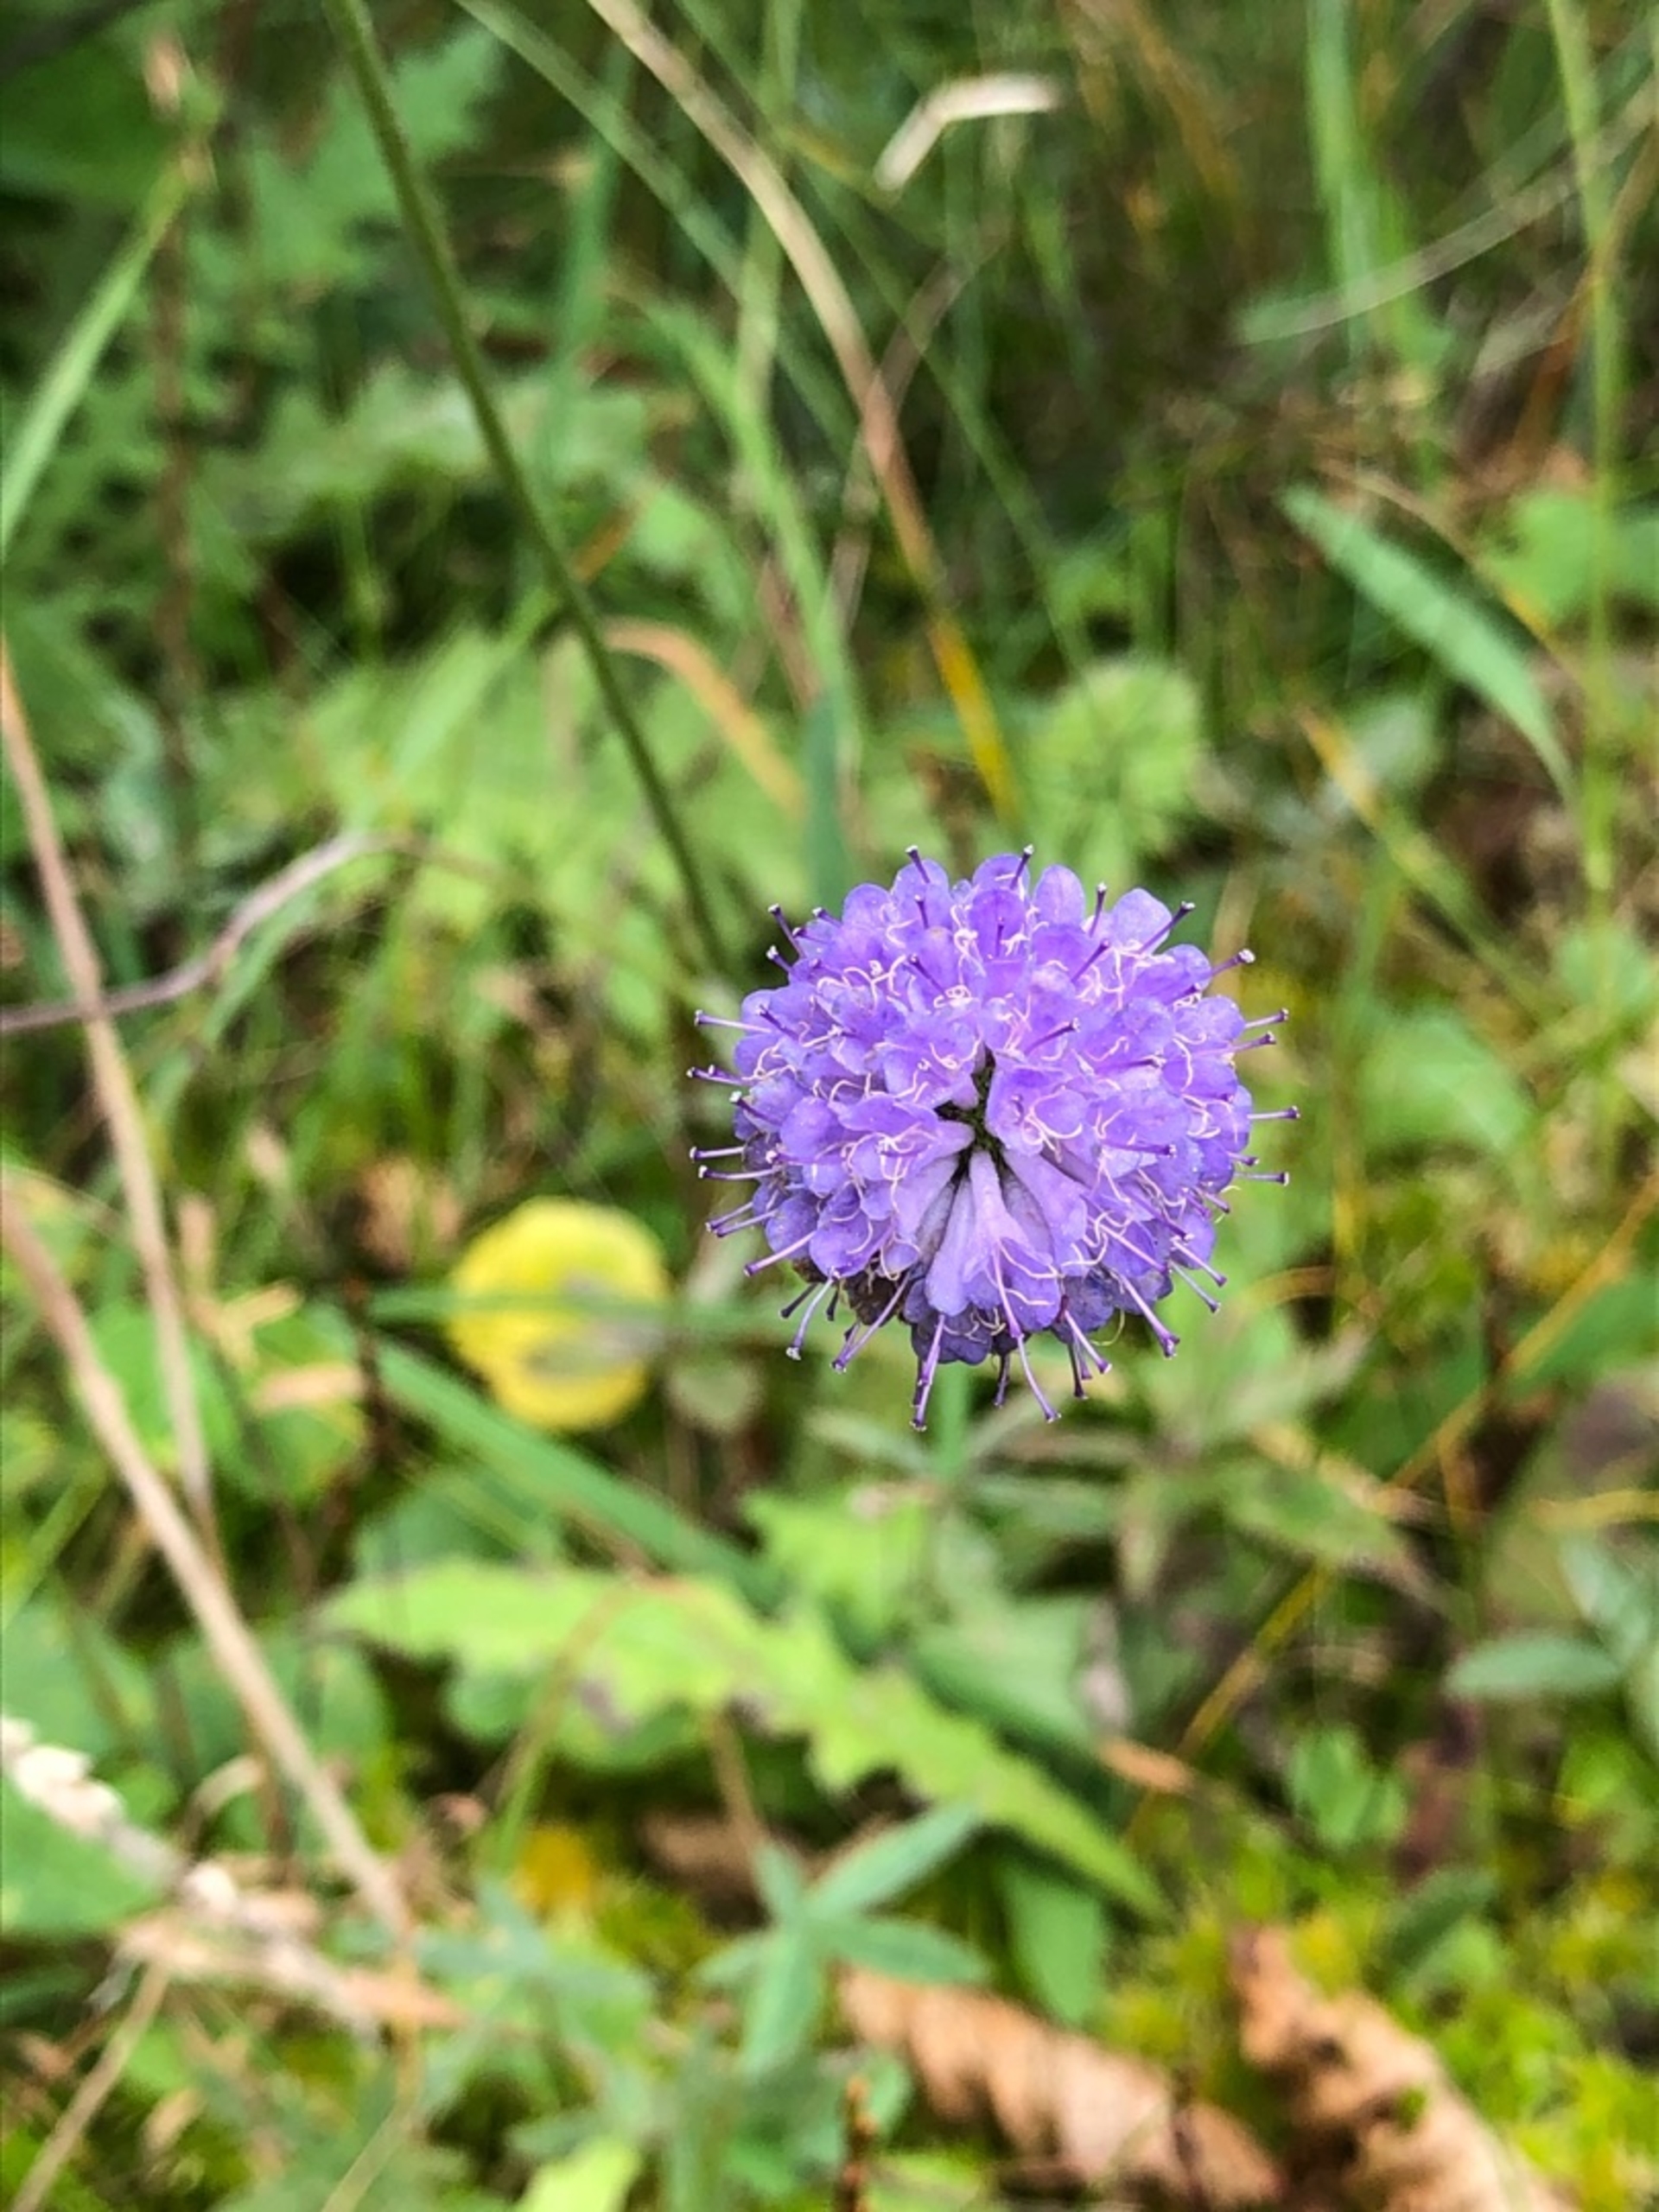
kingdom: Plantae
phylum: Tracheophyta
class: Magnoliopsida
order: Dipsacales
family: Caprifoliaceae
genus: Succisa
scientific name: Succisa pratensis
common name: Djævelsbid
